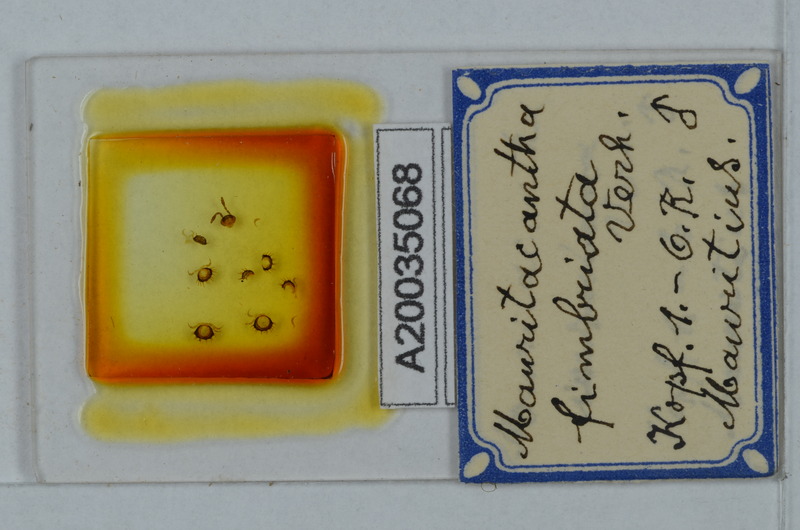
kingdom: Animalia
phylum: Arthropoda
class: Diplopoda
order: Polydesmida
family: Trichopolydesmidae
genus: Mauritacantha
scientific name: Mauritacantha fimbriata
